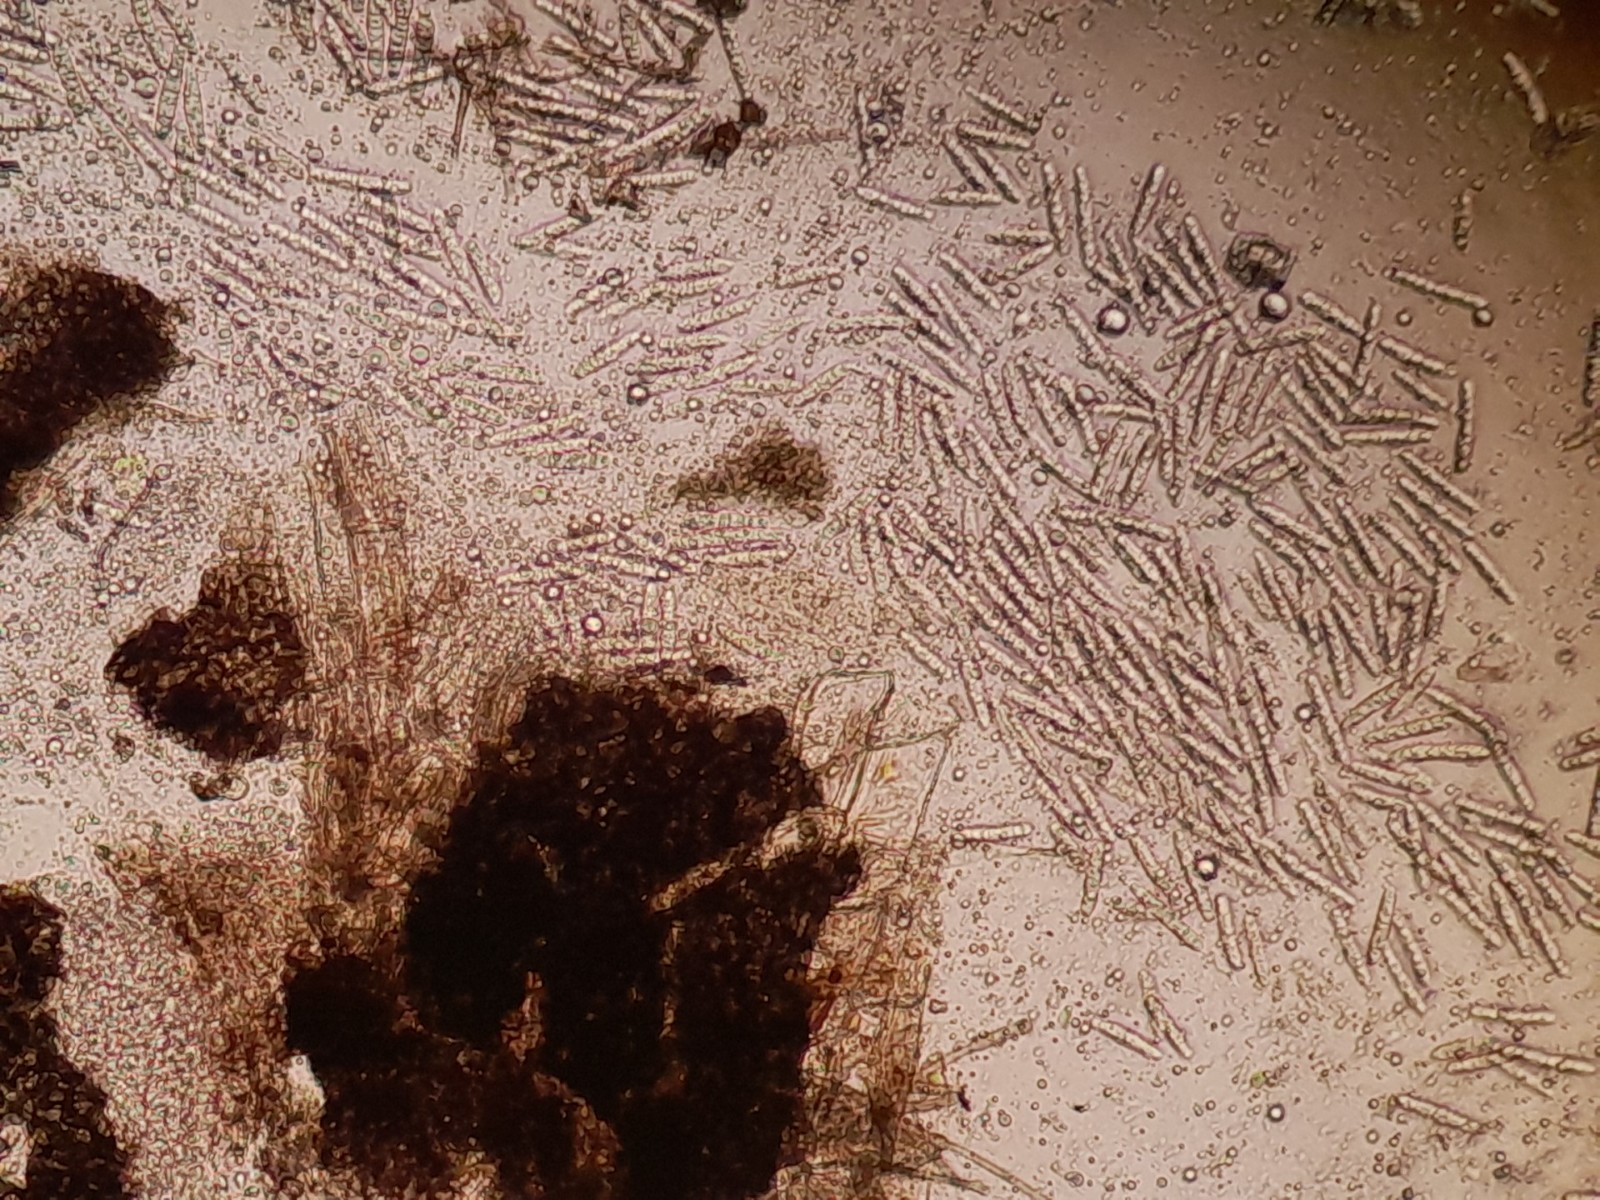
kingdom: Fungi
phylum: Ascomycota
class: Dothideomycetes
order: Pleosporales
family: Phaeosphaeriaceae
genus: Stagonospora
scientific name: Stagonospora typhoidearum
